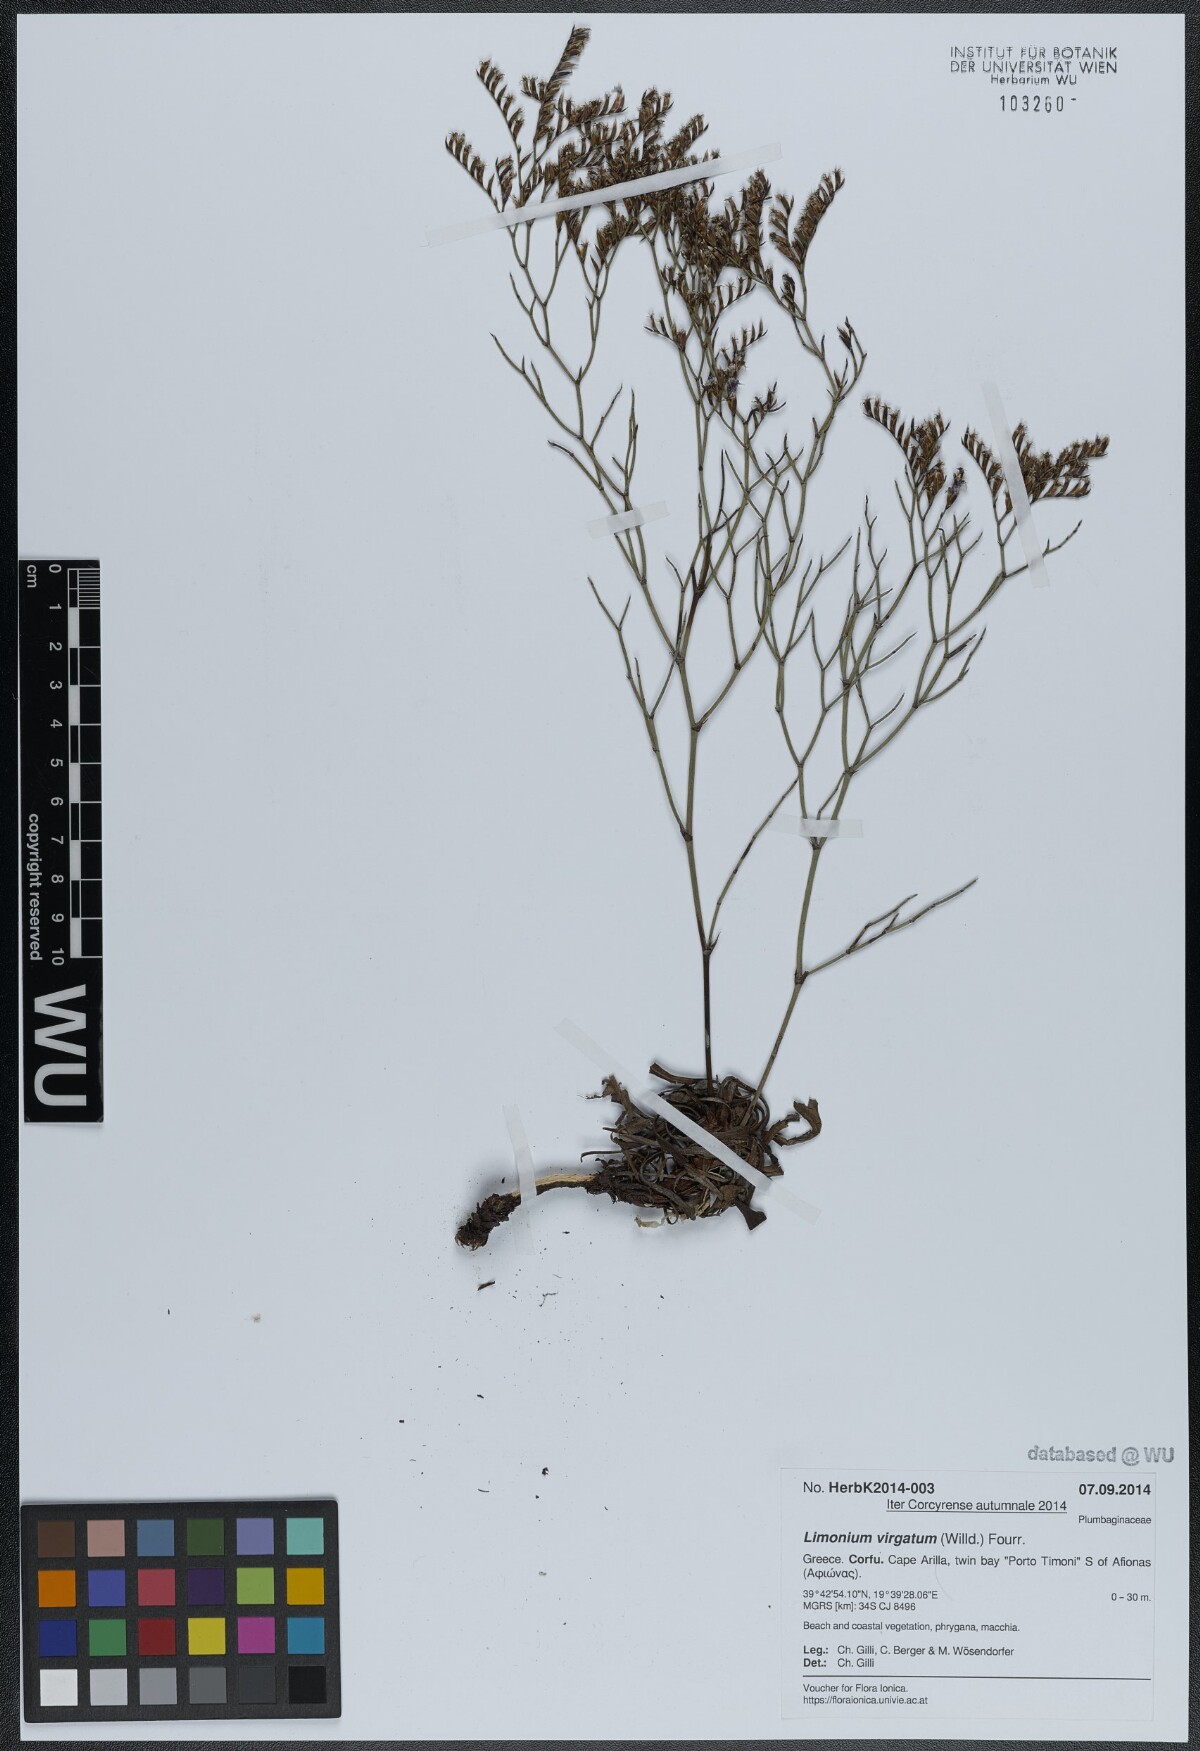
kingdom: Plantae
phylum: Tracheophyta
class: Magnoliopsida
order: Caryophyllales
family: Plumbaginaceae
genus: Limonium
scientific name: Limonium virgatum
